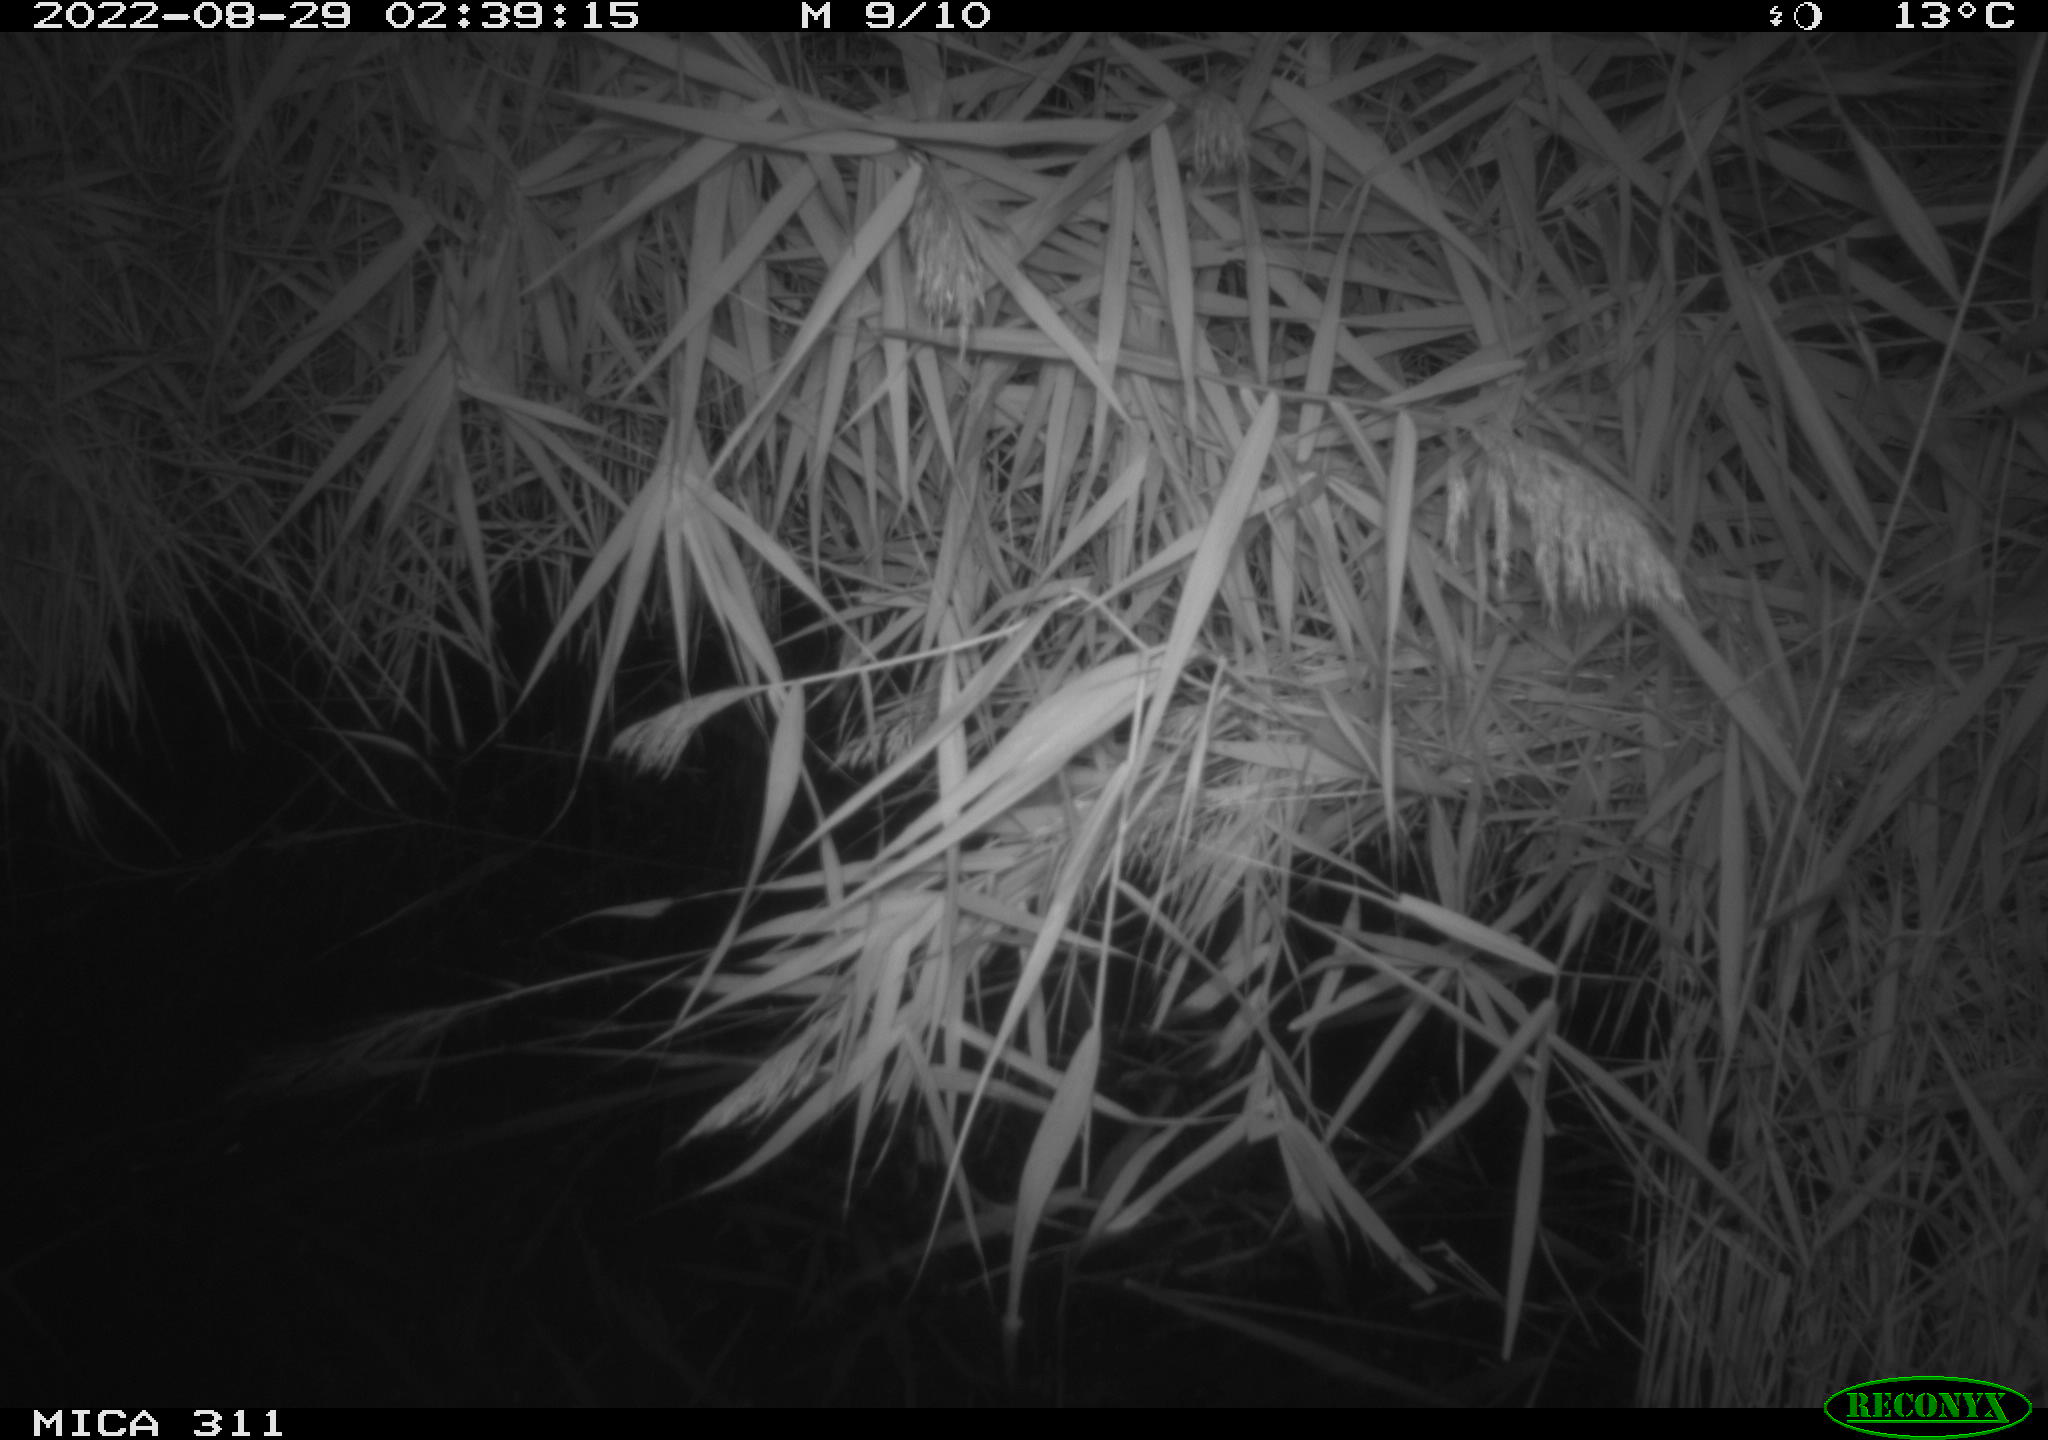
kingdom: Animalia
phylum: Chordata
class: Mammalia
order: Rodentia
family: Muridae
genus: Rattus
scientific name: Rattus norvegicus
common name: Brown rat
